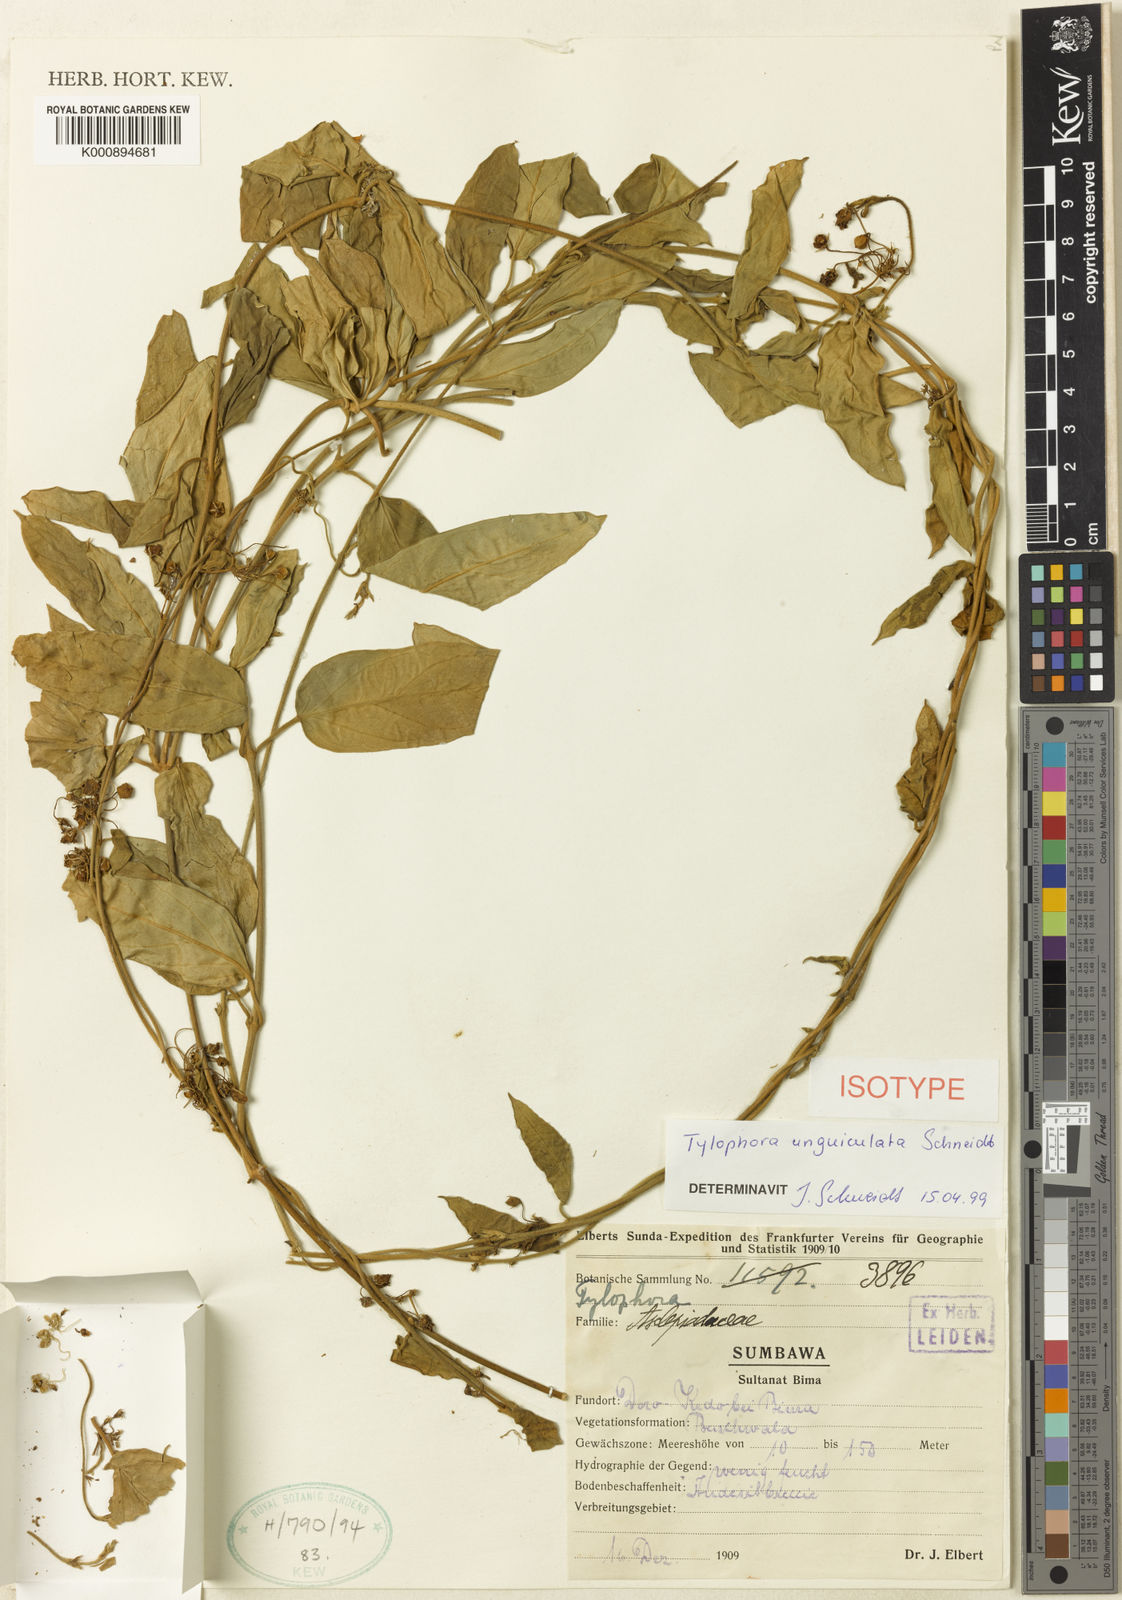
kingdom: Plantae
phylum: Tracheophyta
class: Magnoliopsida
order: Gentianales
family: Apocynaceae
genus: Vincetoxicum
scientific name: Vincetoxicum
